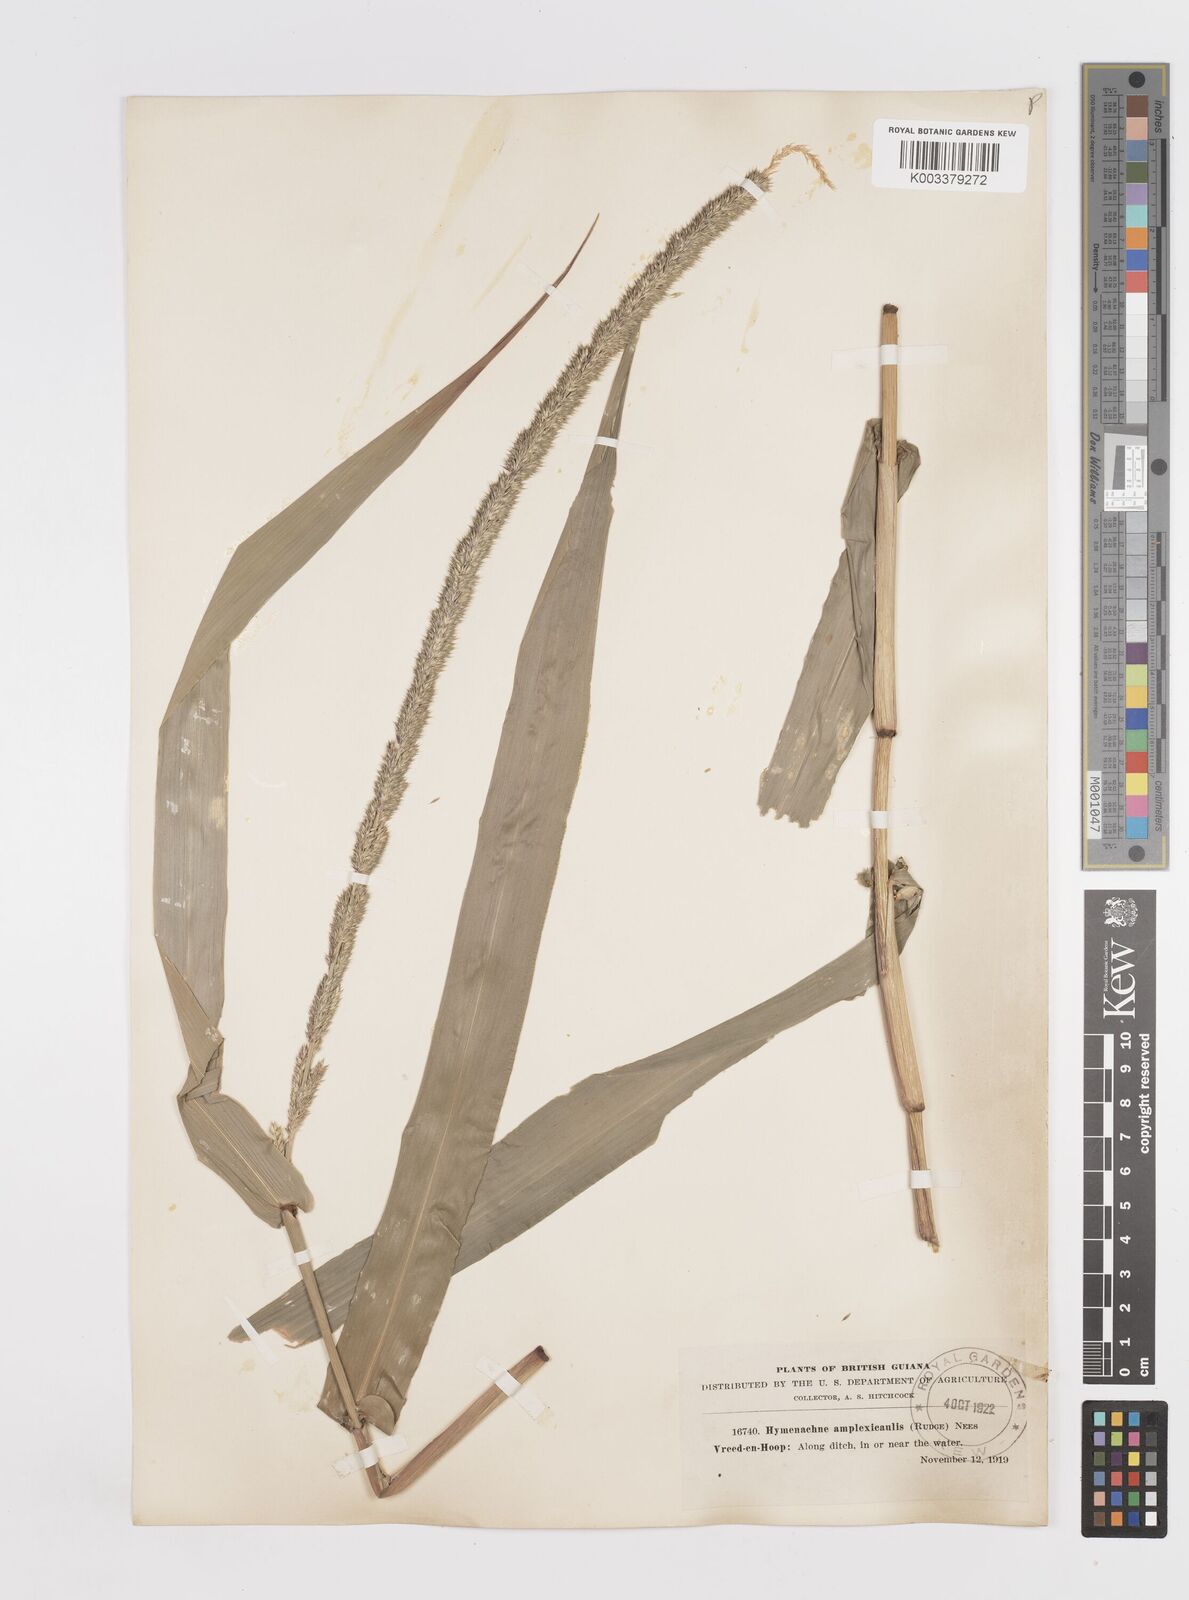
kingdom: Plantae
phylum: Tracheophyta
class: Liliopsida
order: Poales
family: Poaceae
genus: Hymenachne
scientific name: Hymenachne amplexicaulis
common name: Olive hymenachne
